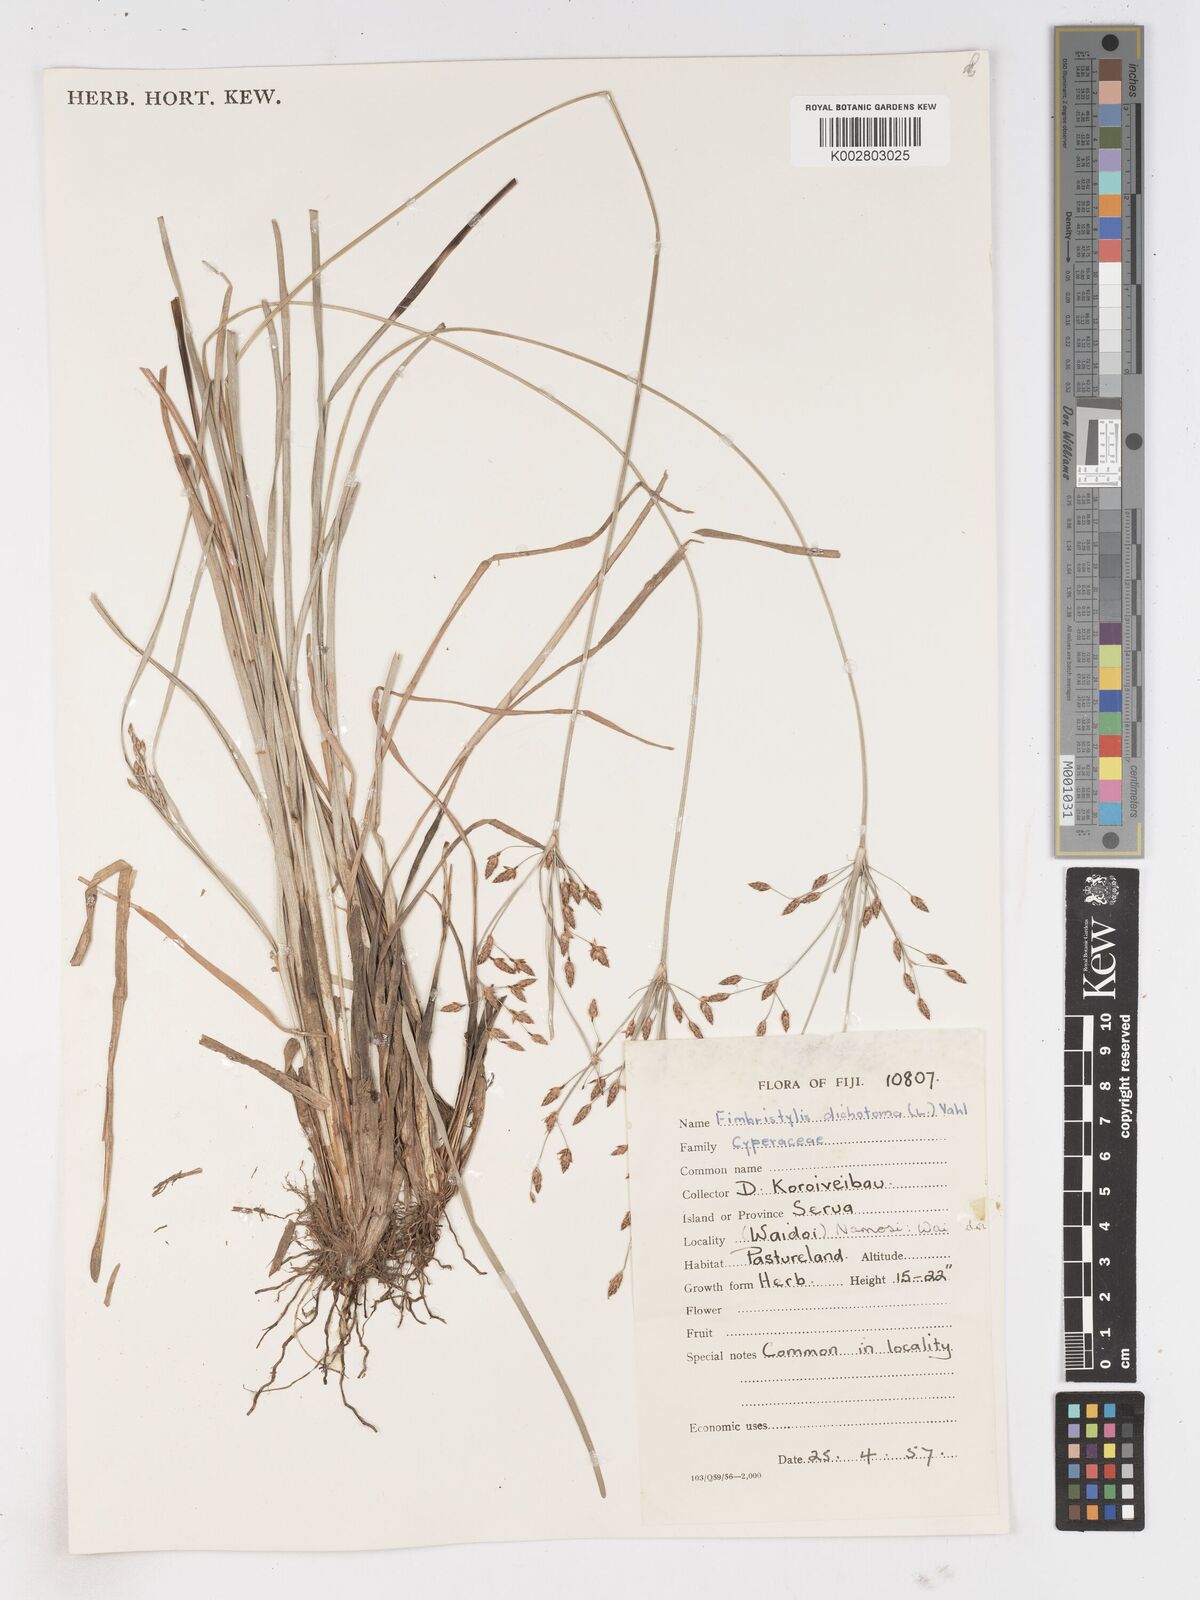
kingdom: Plantae
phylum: Tracheophyta
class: Liliopsida
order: Poales
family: Cyperaceae
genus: Fimbristylis
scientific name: Fimbristylis dichotoma
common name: Forked fimbry
